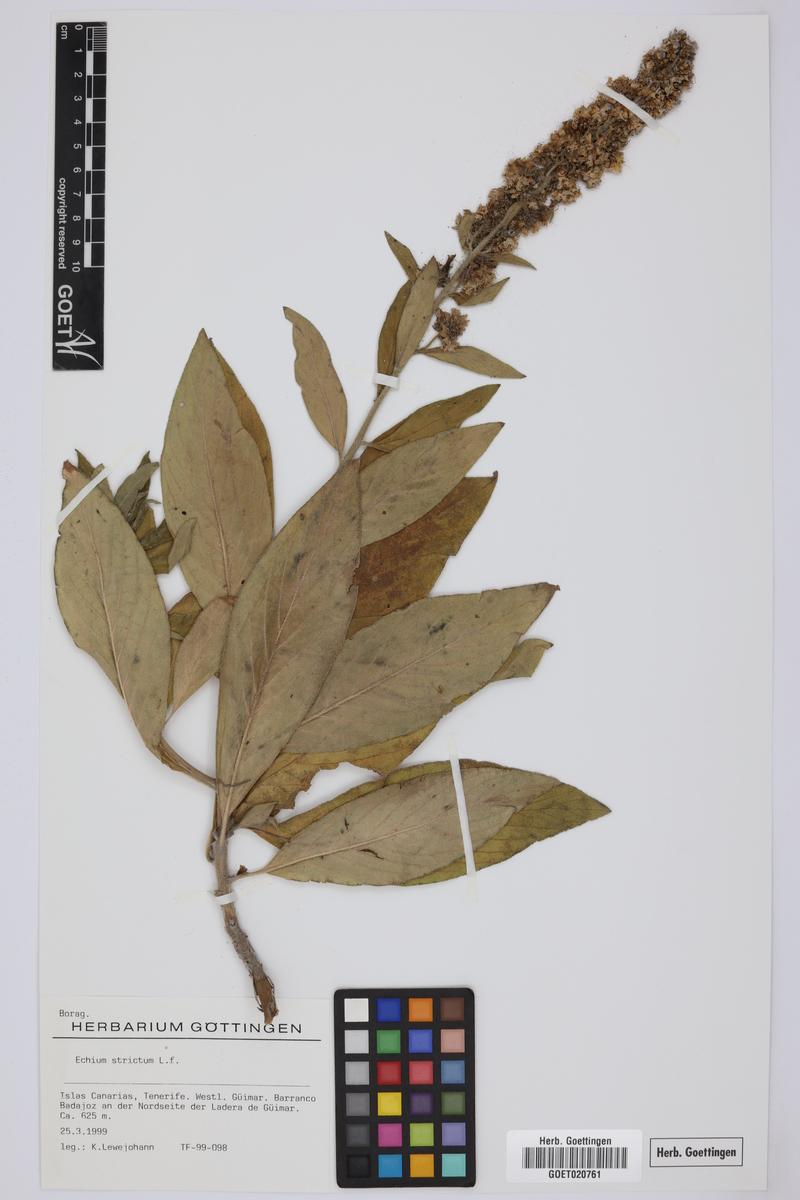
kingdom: Plantae
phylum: Tracheophyta
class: Magnoliopsida
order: Boraginales
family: Boraginaceae
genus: Echium
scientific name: Echium strictum
